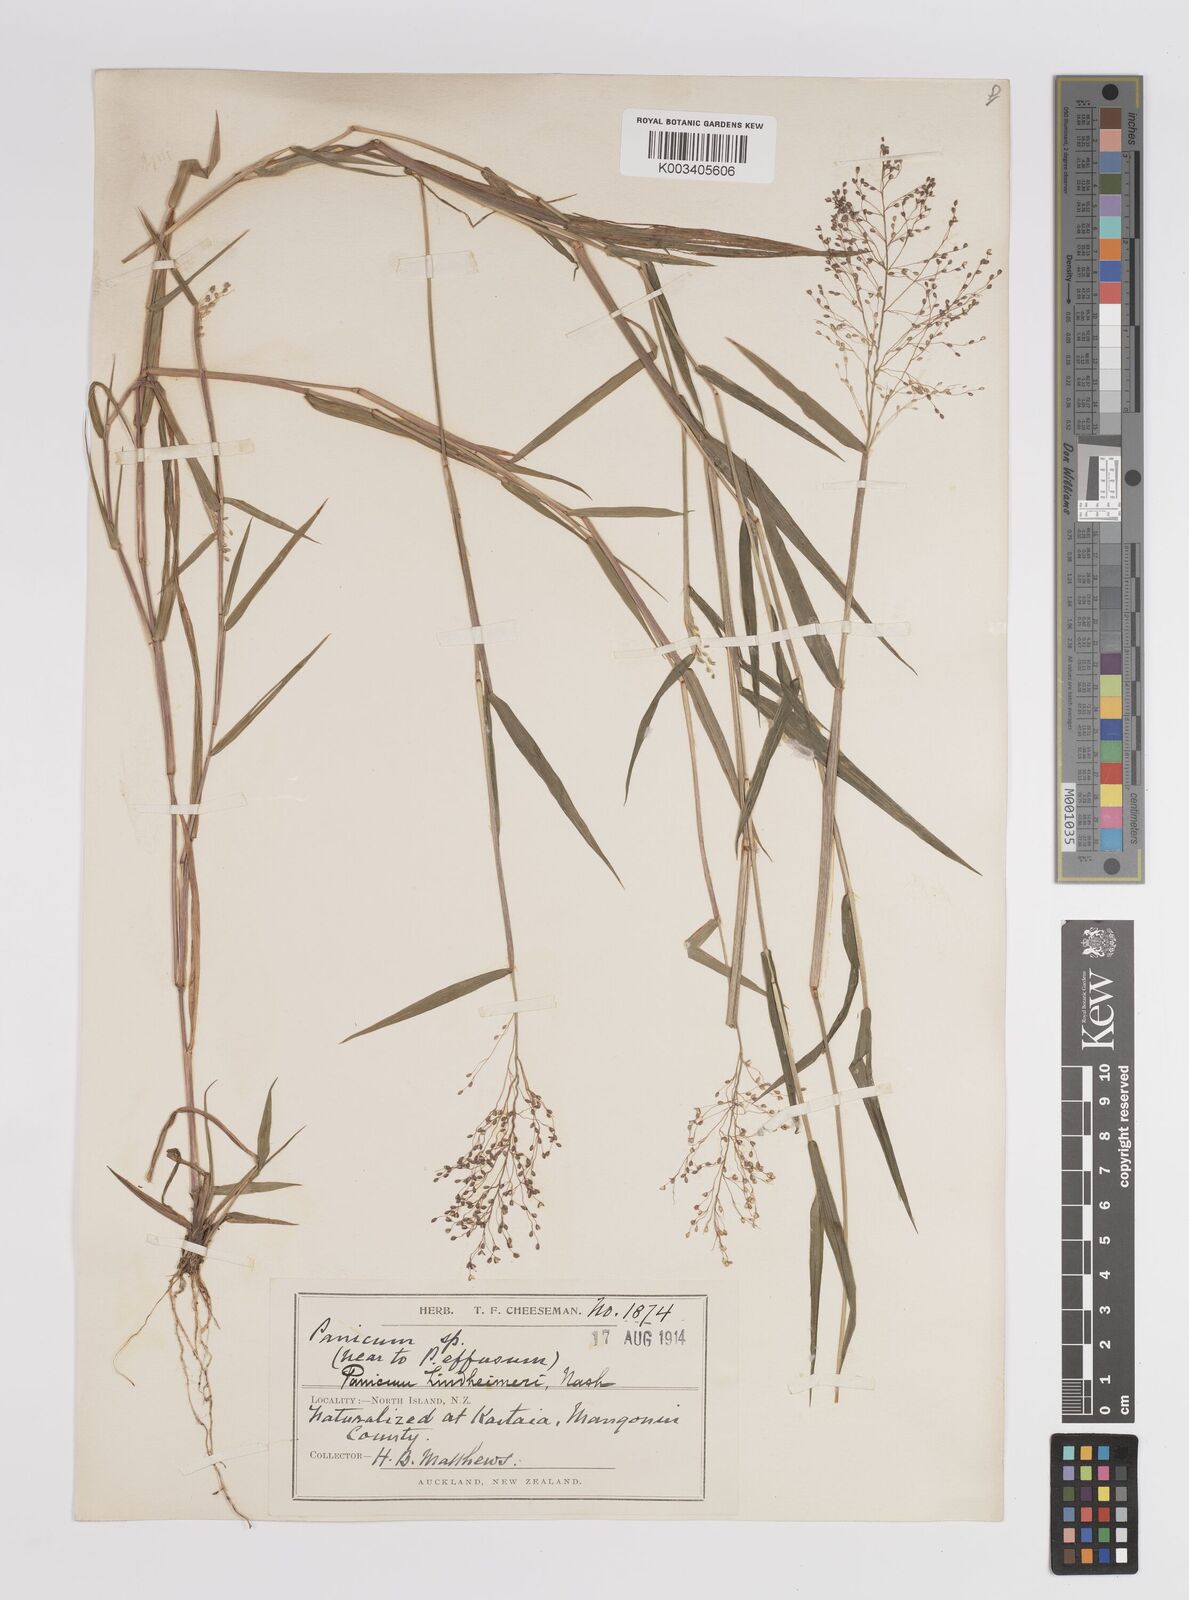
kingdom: Plantae
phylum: Tracheophyta
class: Liliopsida
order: Poales
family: Poaceae
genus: Dichanthelium
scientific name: Dichanthelium lindheimeri
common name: Lindheimer's panicgrass
